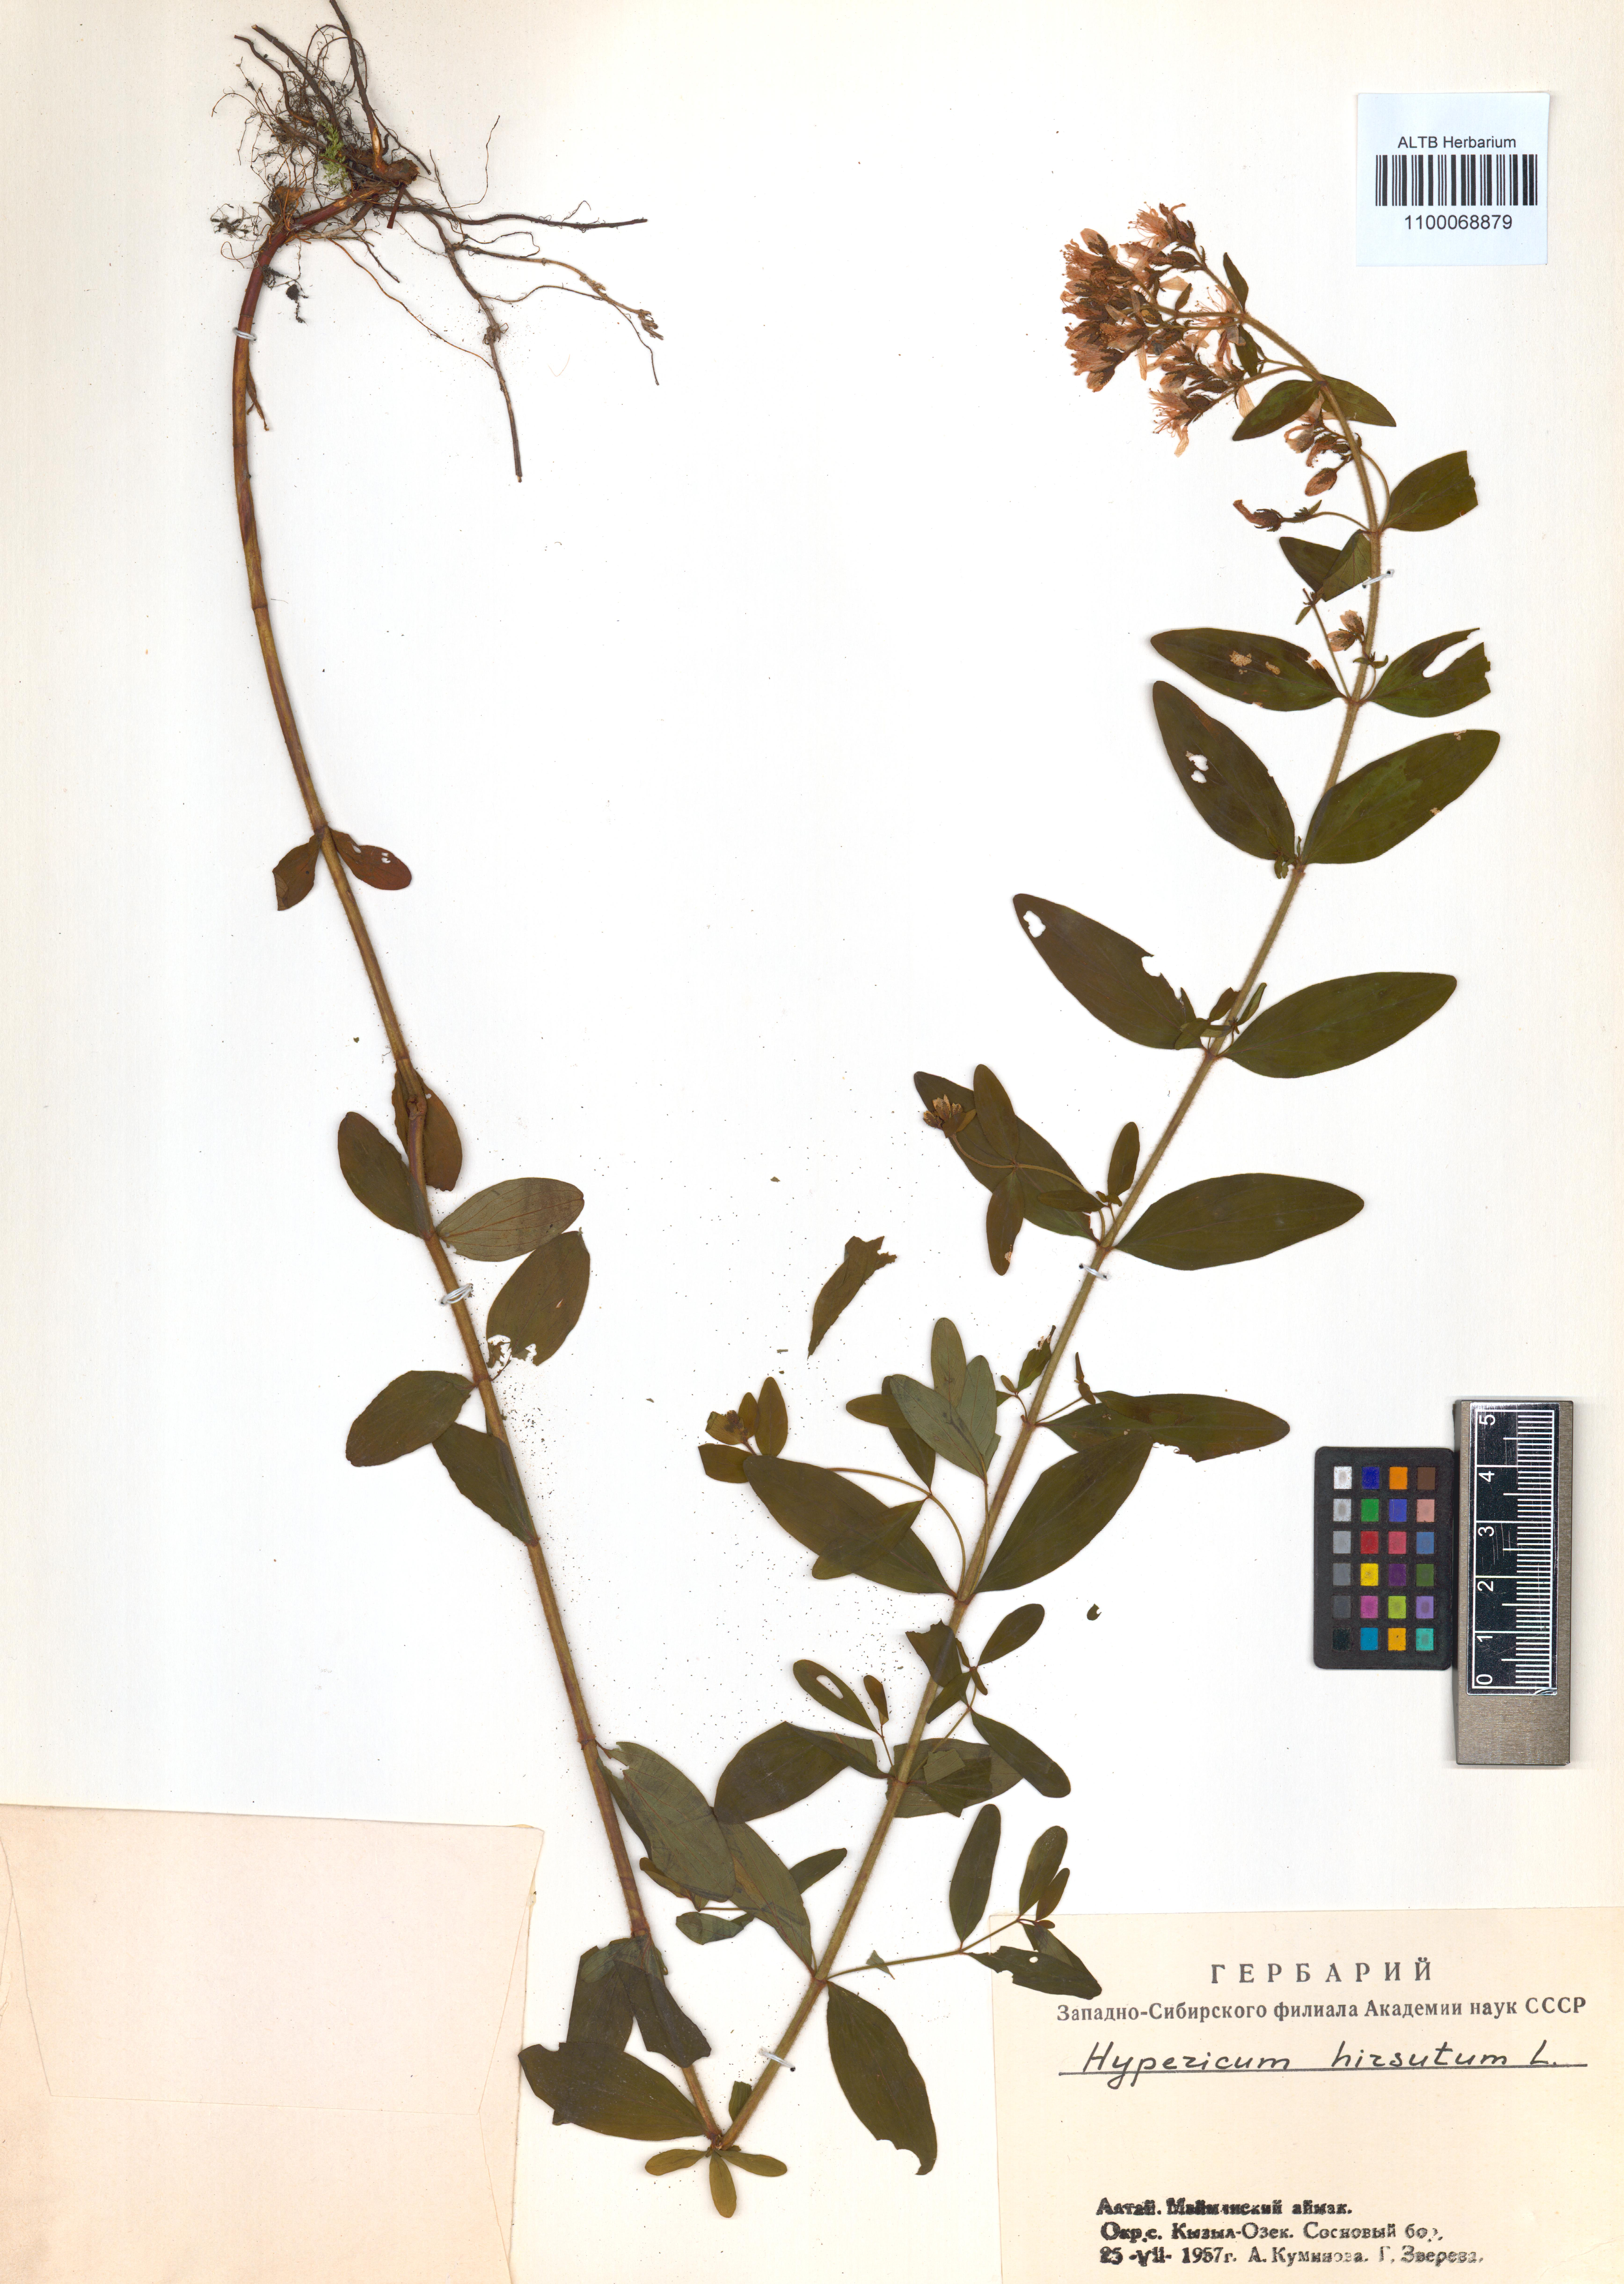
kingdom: Plantae
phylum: Tracheophyta
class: Magnoliopsida
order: Malpighiales
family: Hypericaceae
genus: Hypericum
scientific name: Hypericum hirsutum
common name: Hairy st. john's-wort
